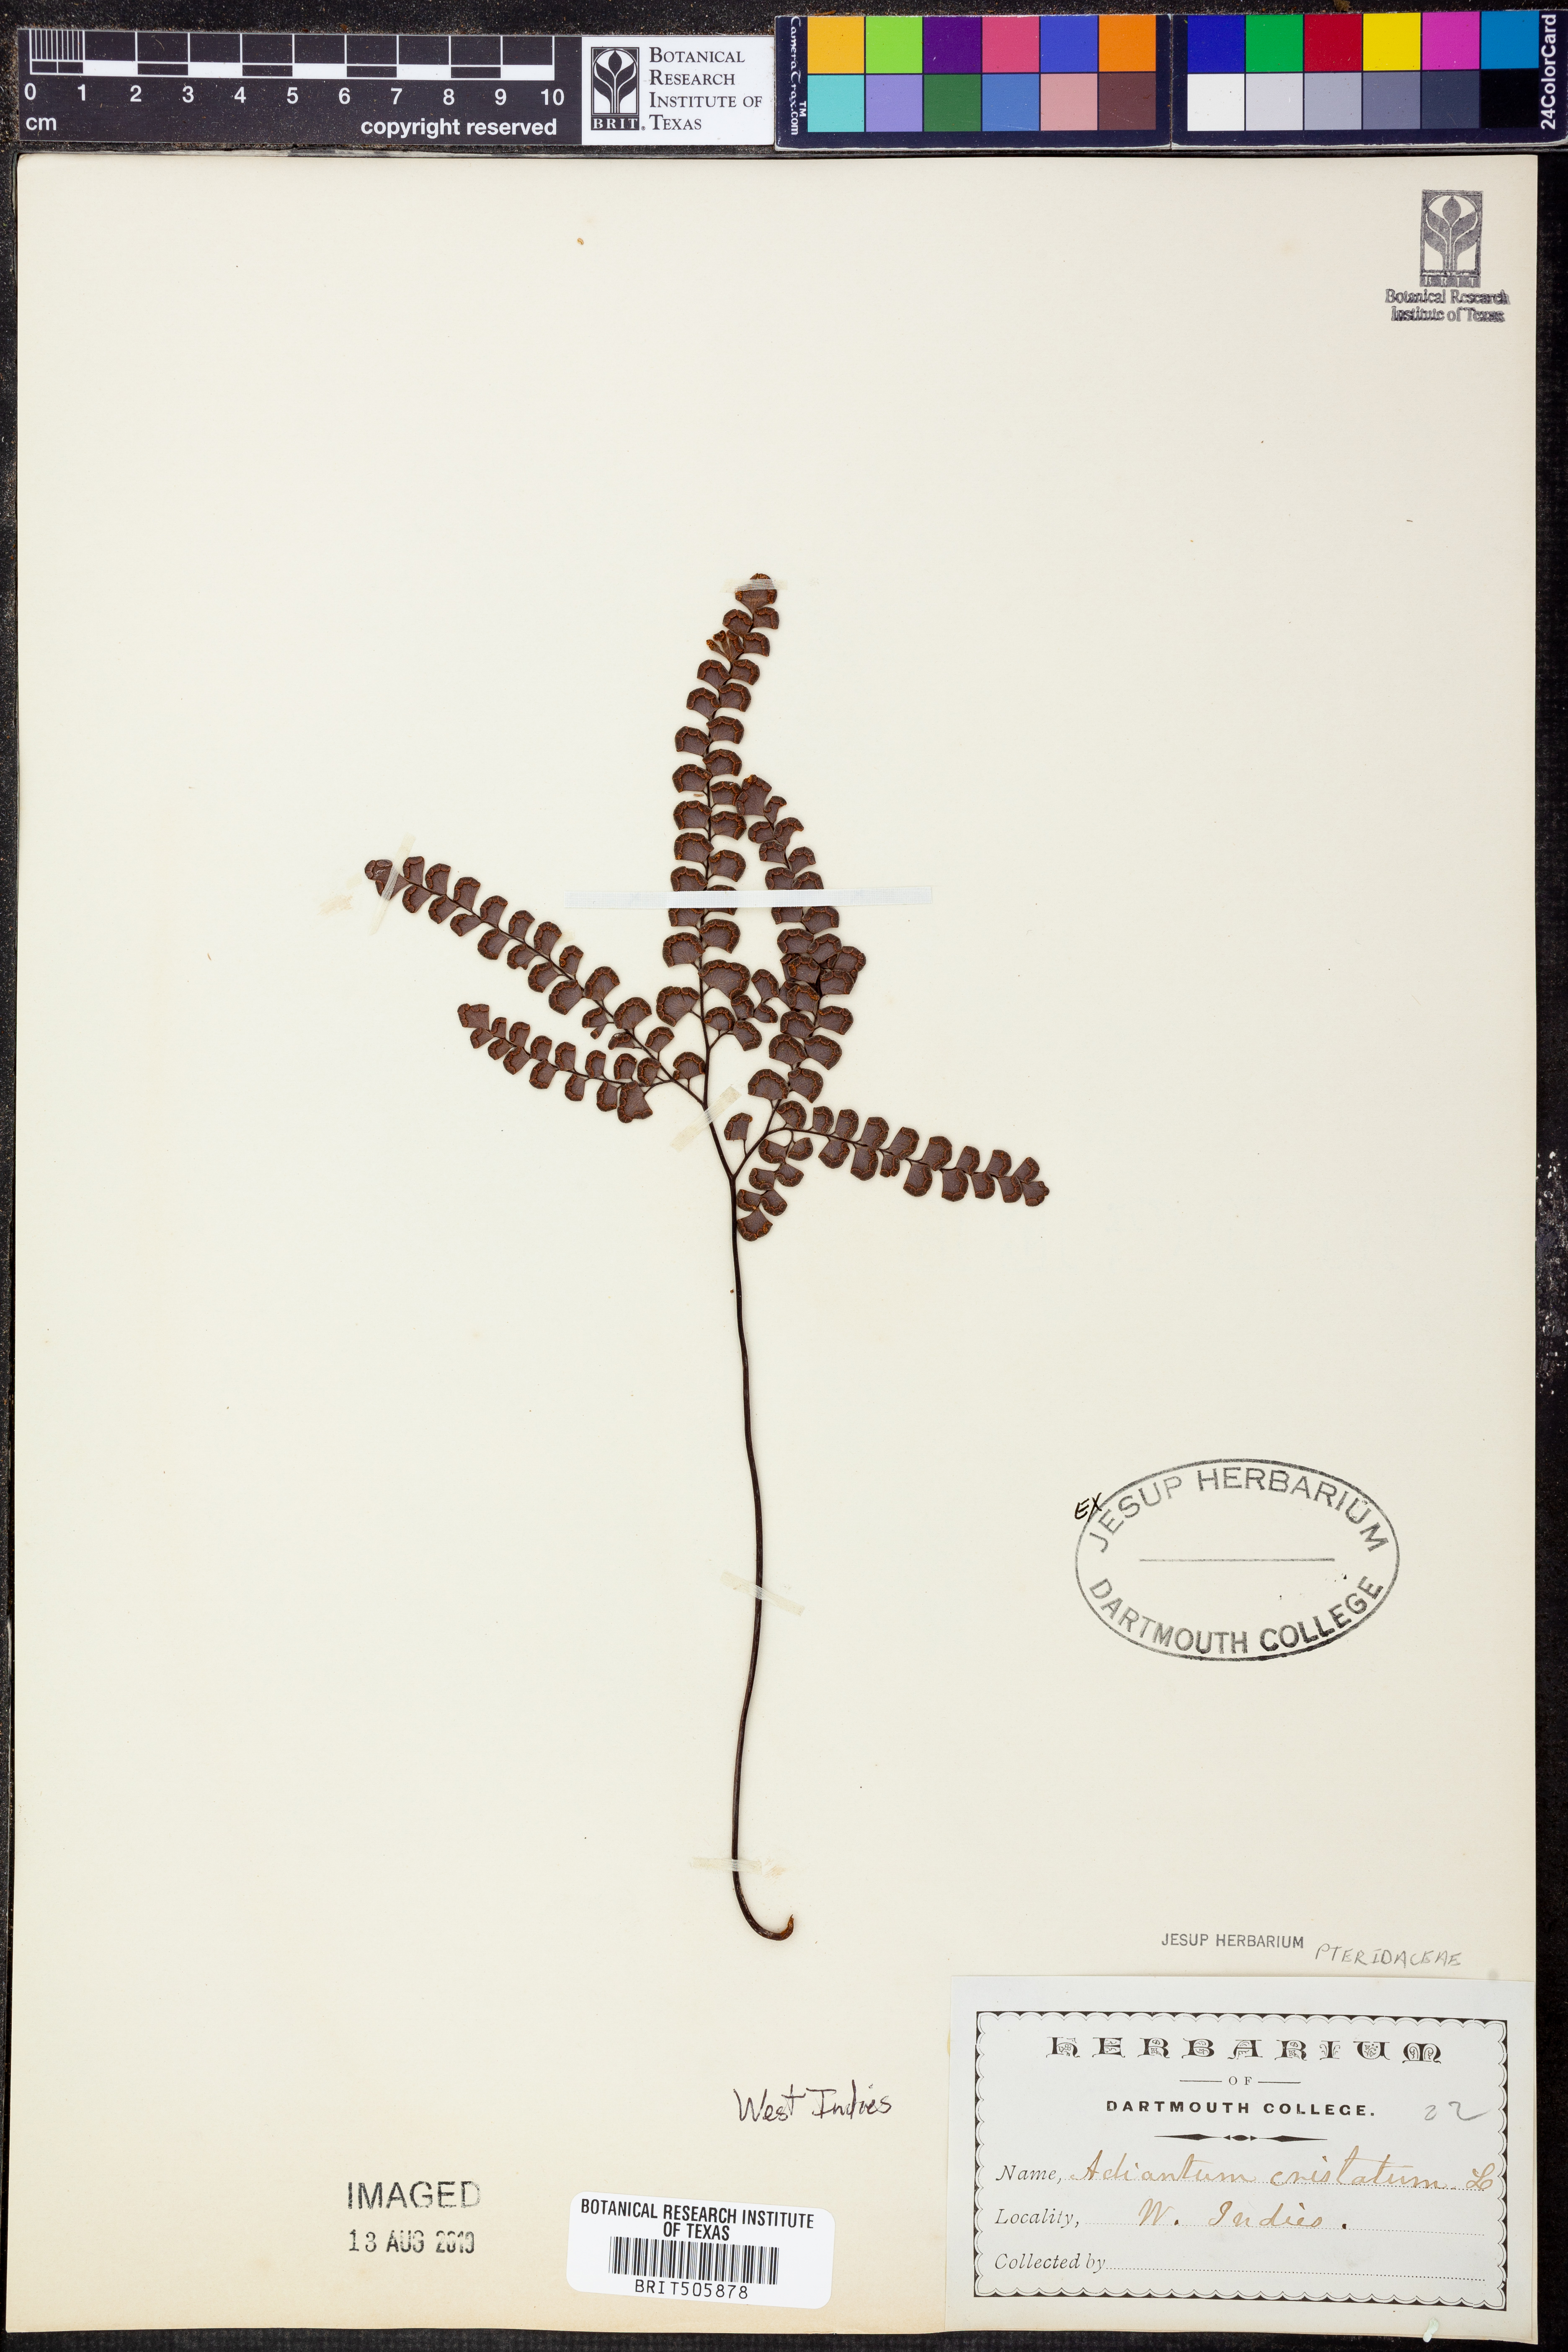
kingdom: Plantae
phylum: Tracheophyta
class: Polypodiopsida
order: Polypodiales
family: Pteridaceae
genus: Adiantum
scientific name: Adiantum pyramidale
